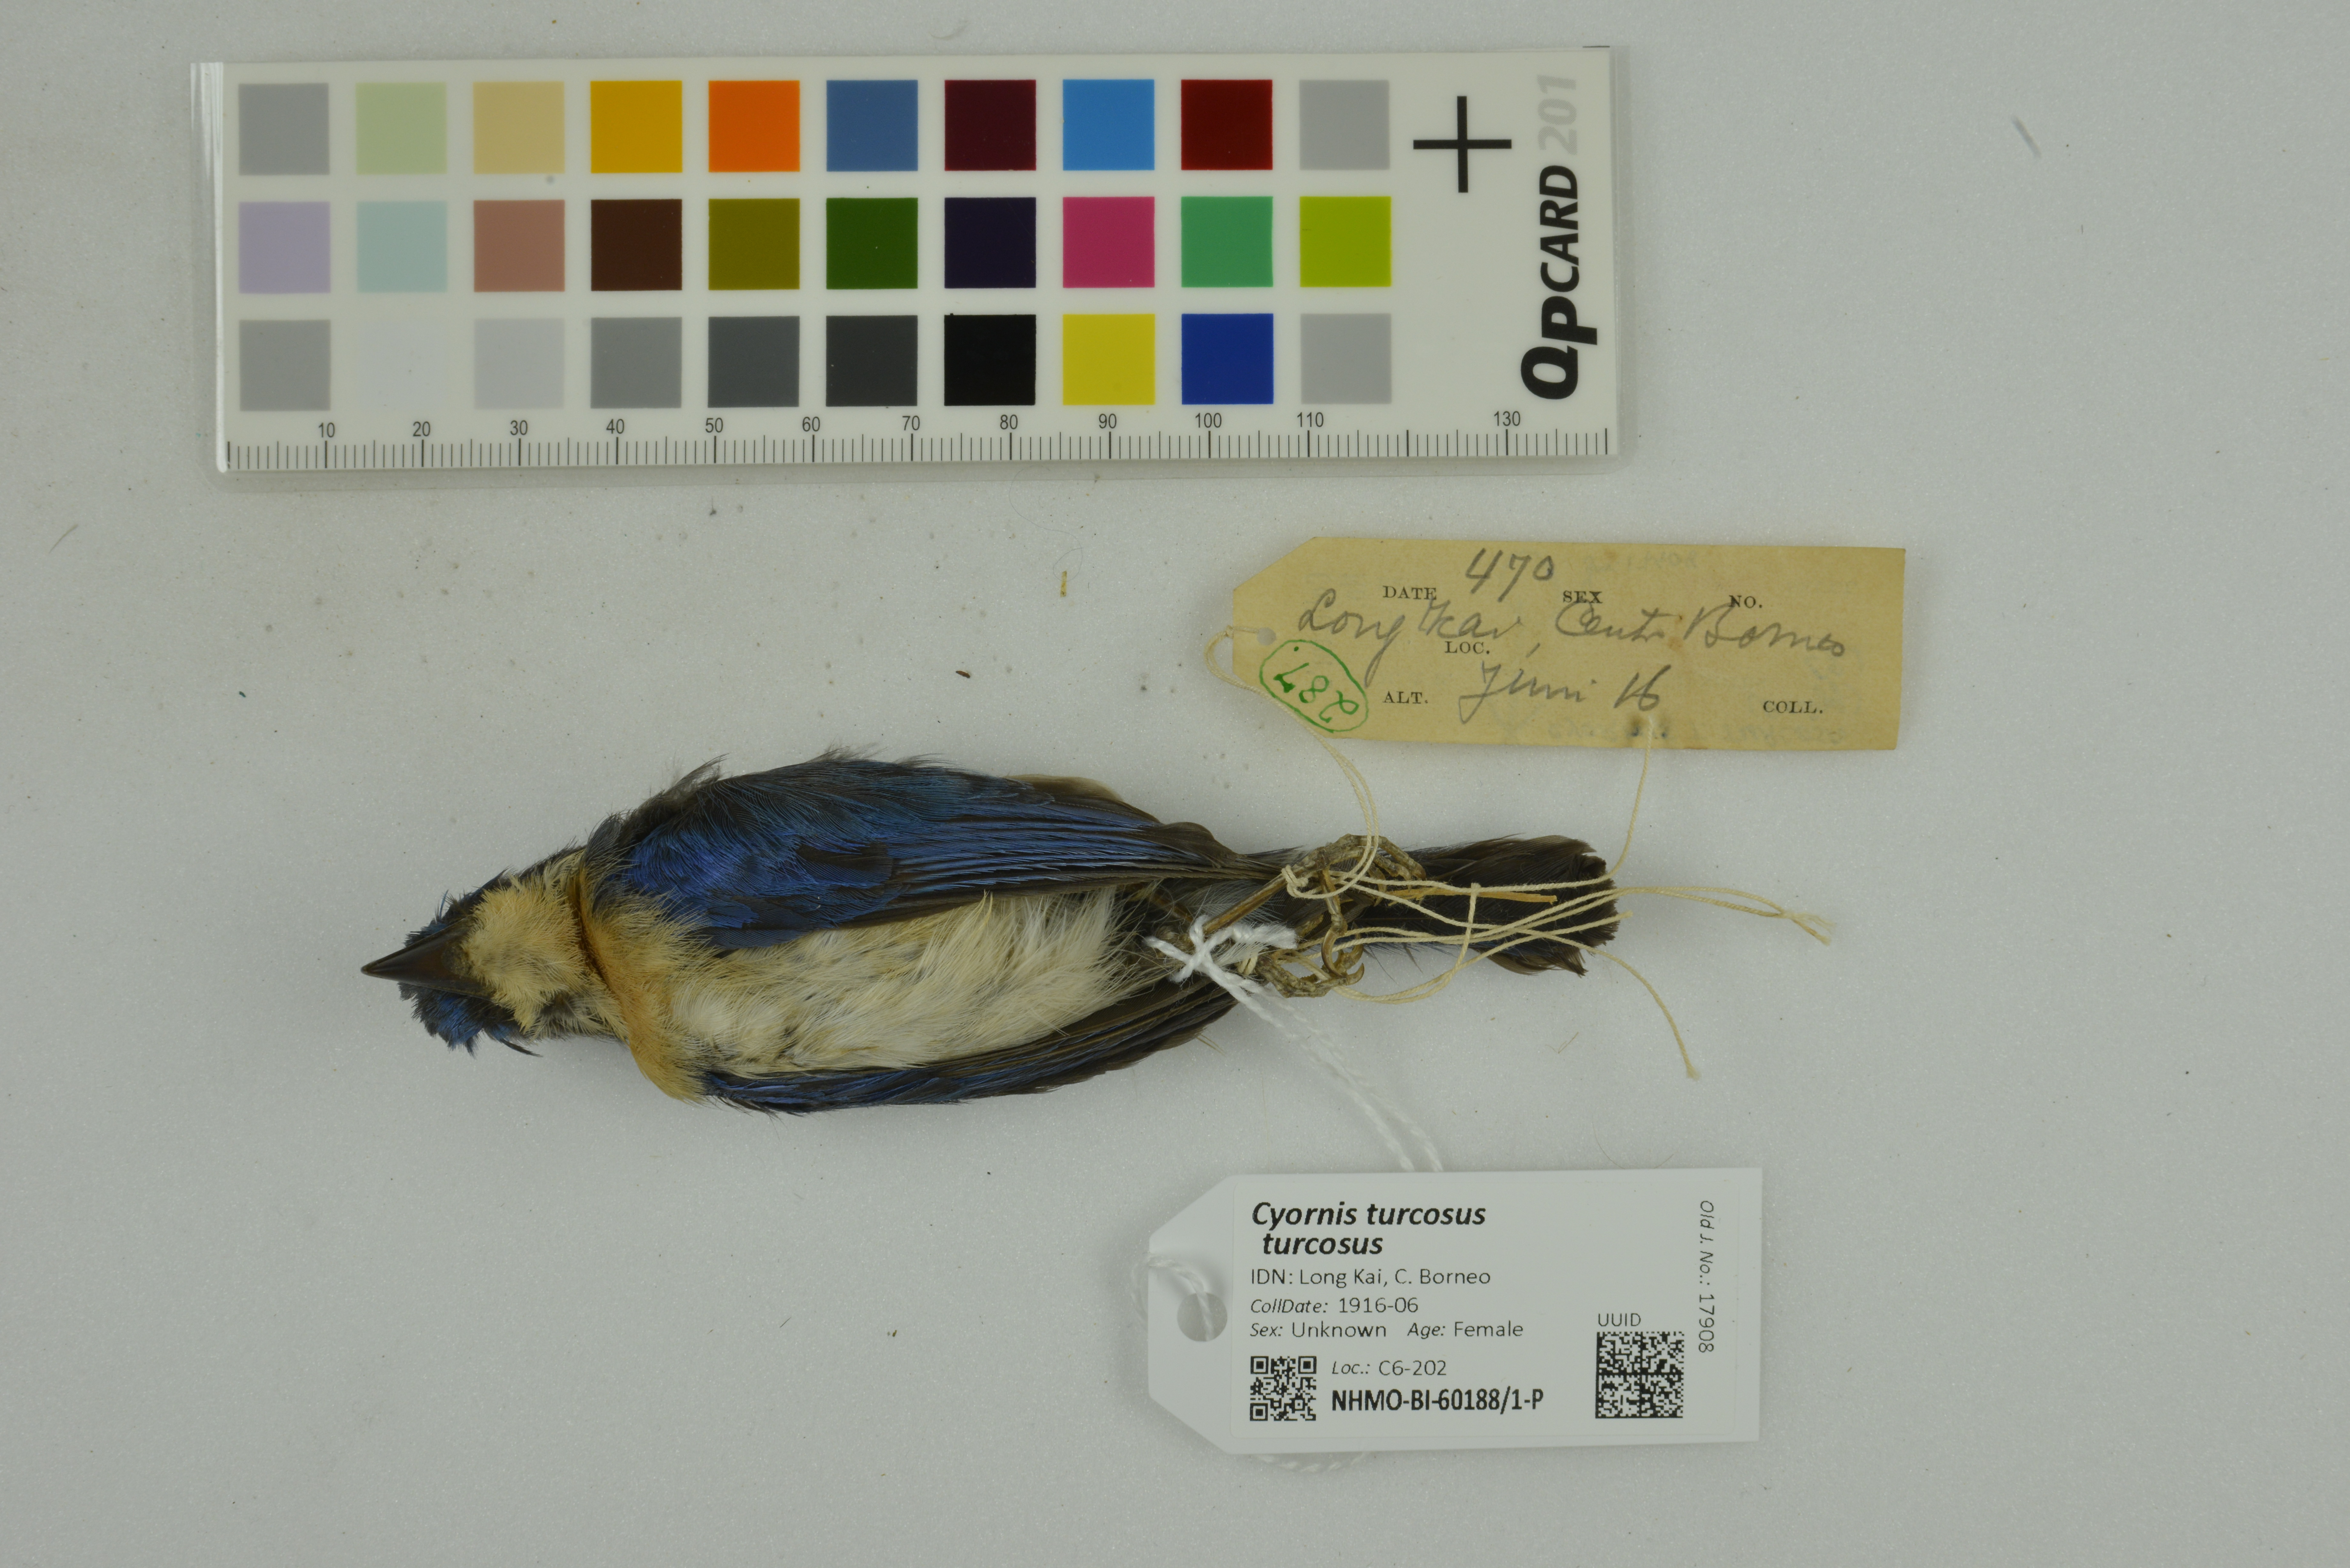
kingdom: Animalia
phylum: Chordata
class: Aves
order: Passeriformes
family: Muscicapidae
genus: Cyornis
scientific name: Cyornis turcosus
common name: Malaysian blue flycatcher
